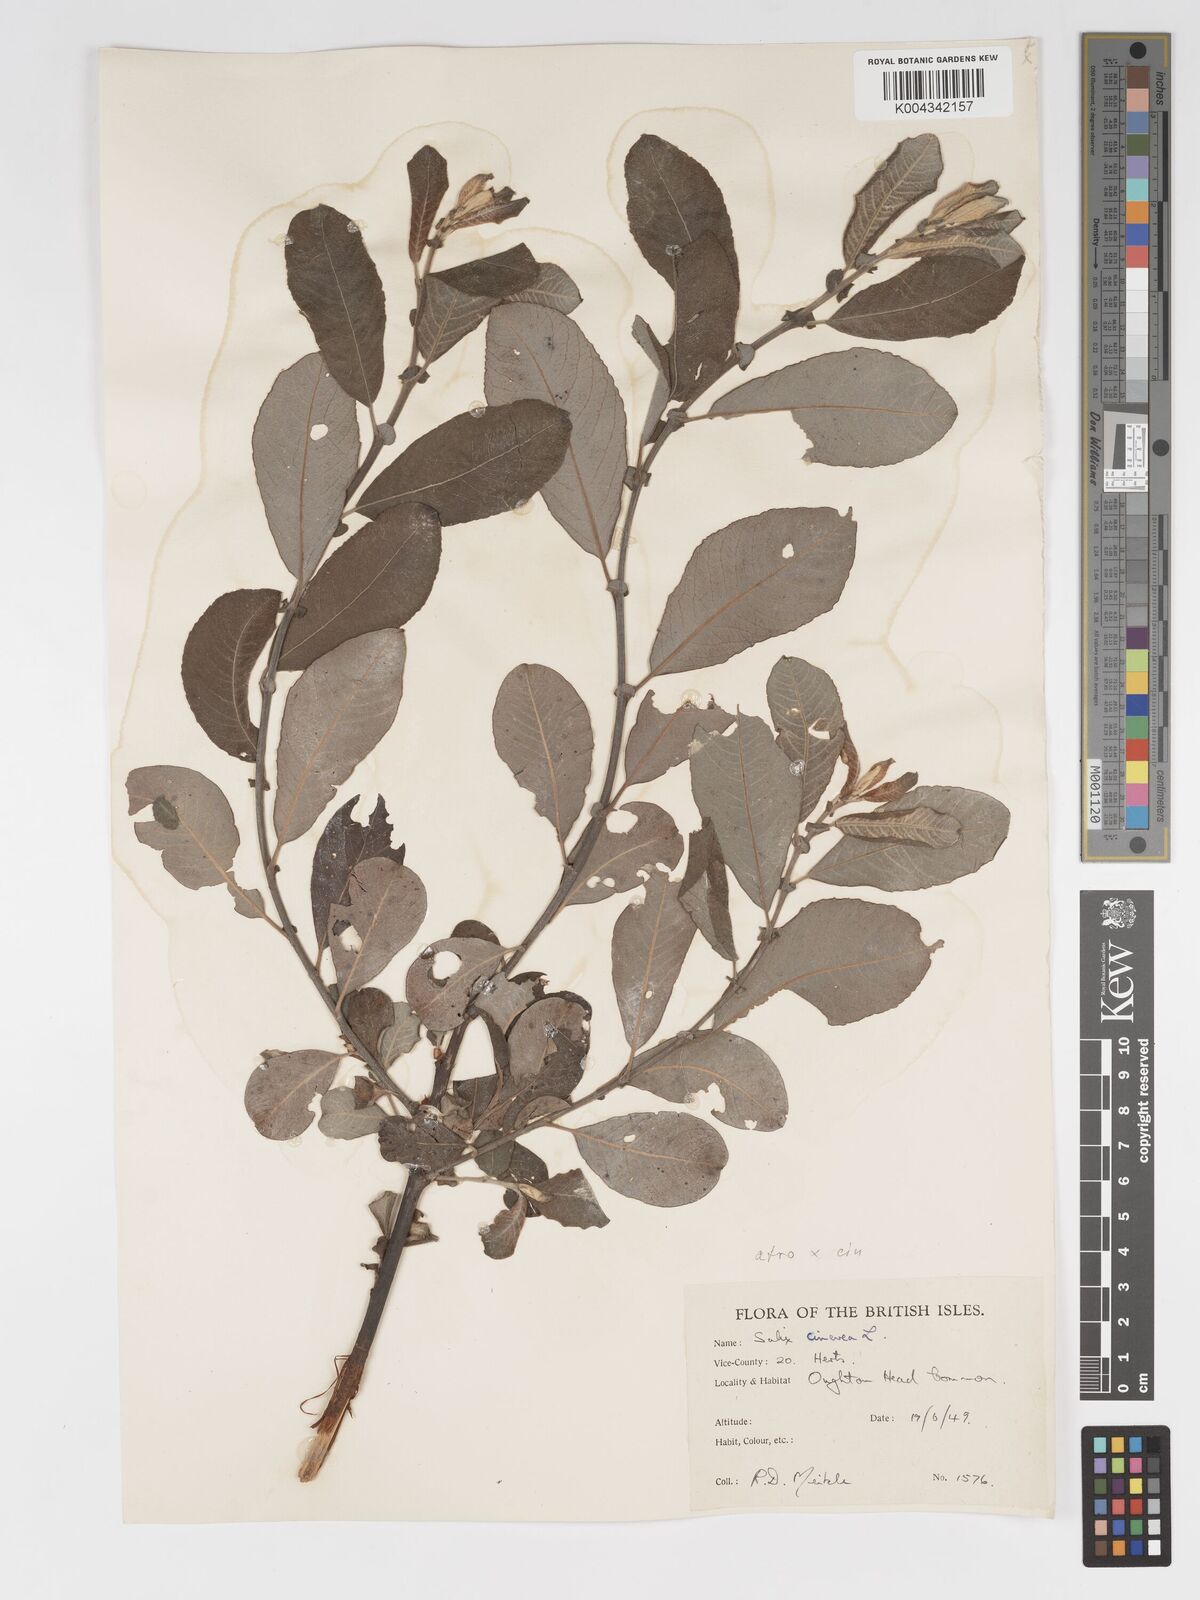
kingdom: Plantae
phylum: Tracheophyta
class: Magnoliopsida
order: Malpighiales
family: Salicaceae
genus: Salix
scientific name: Salix
